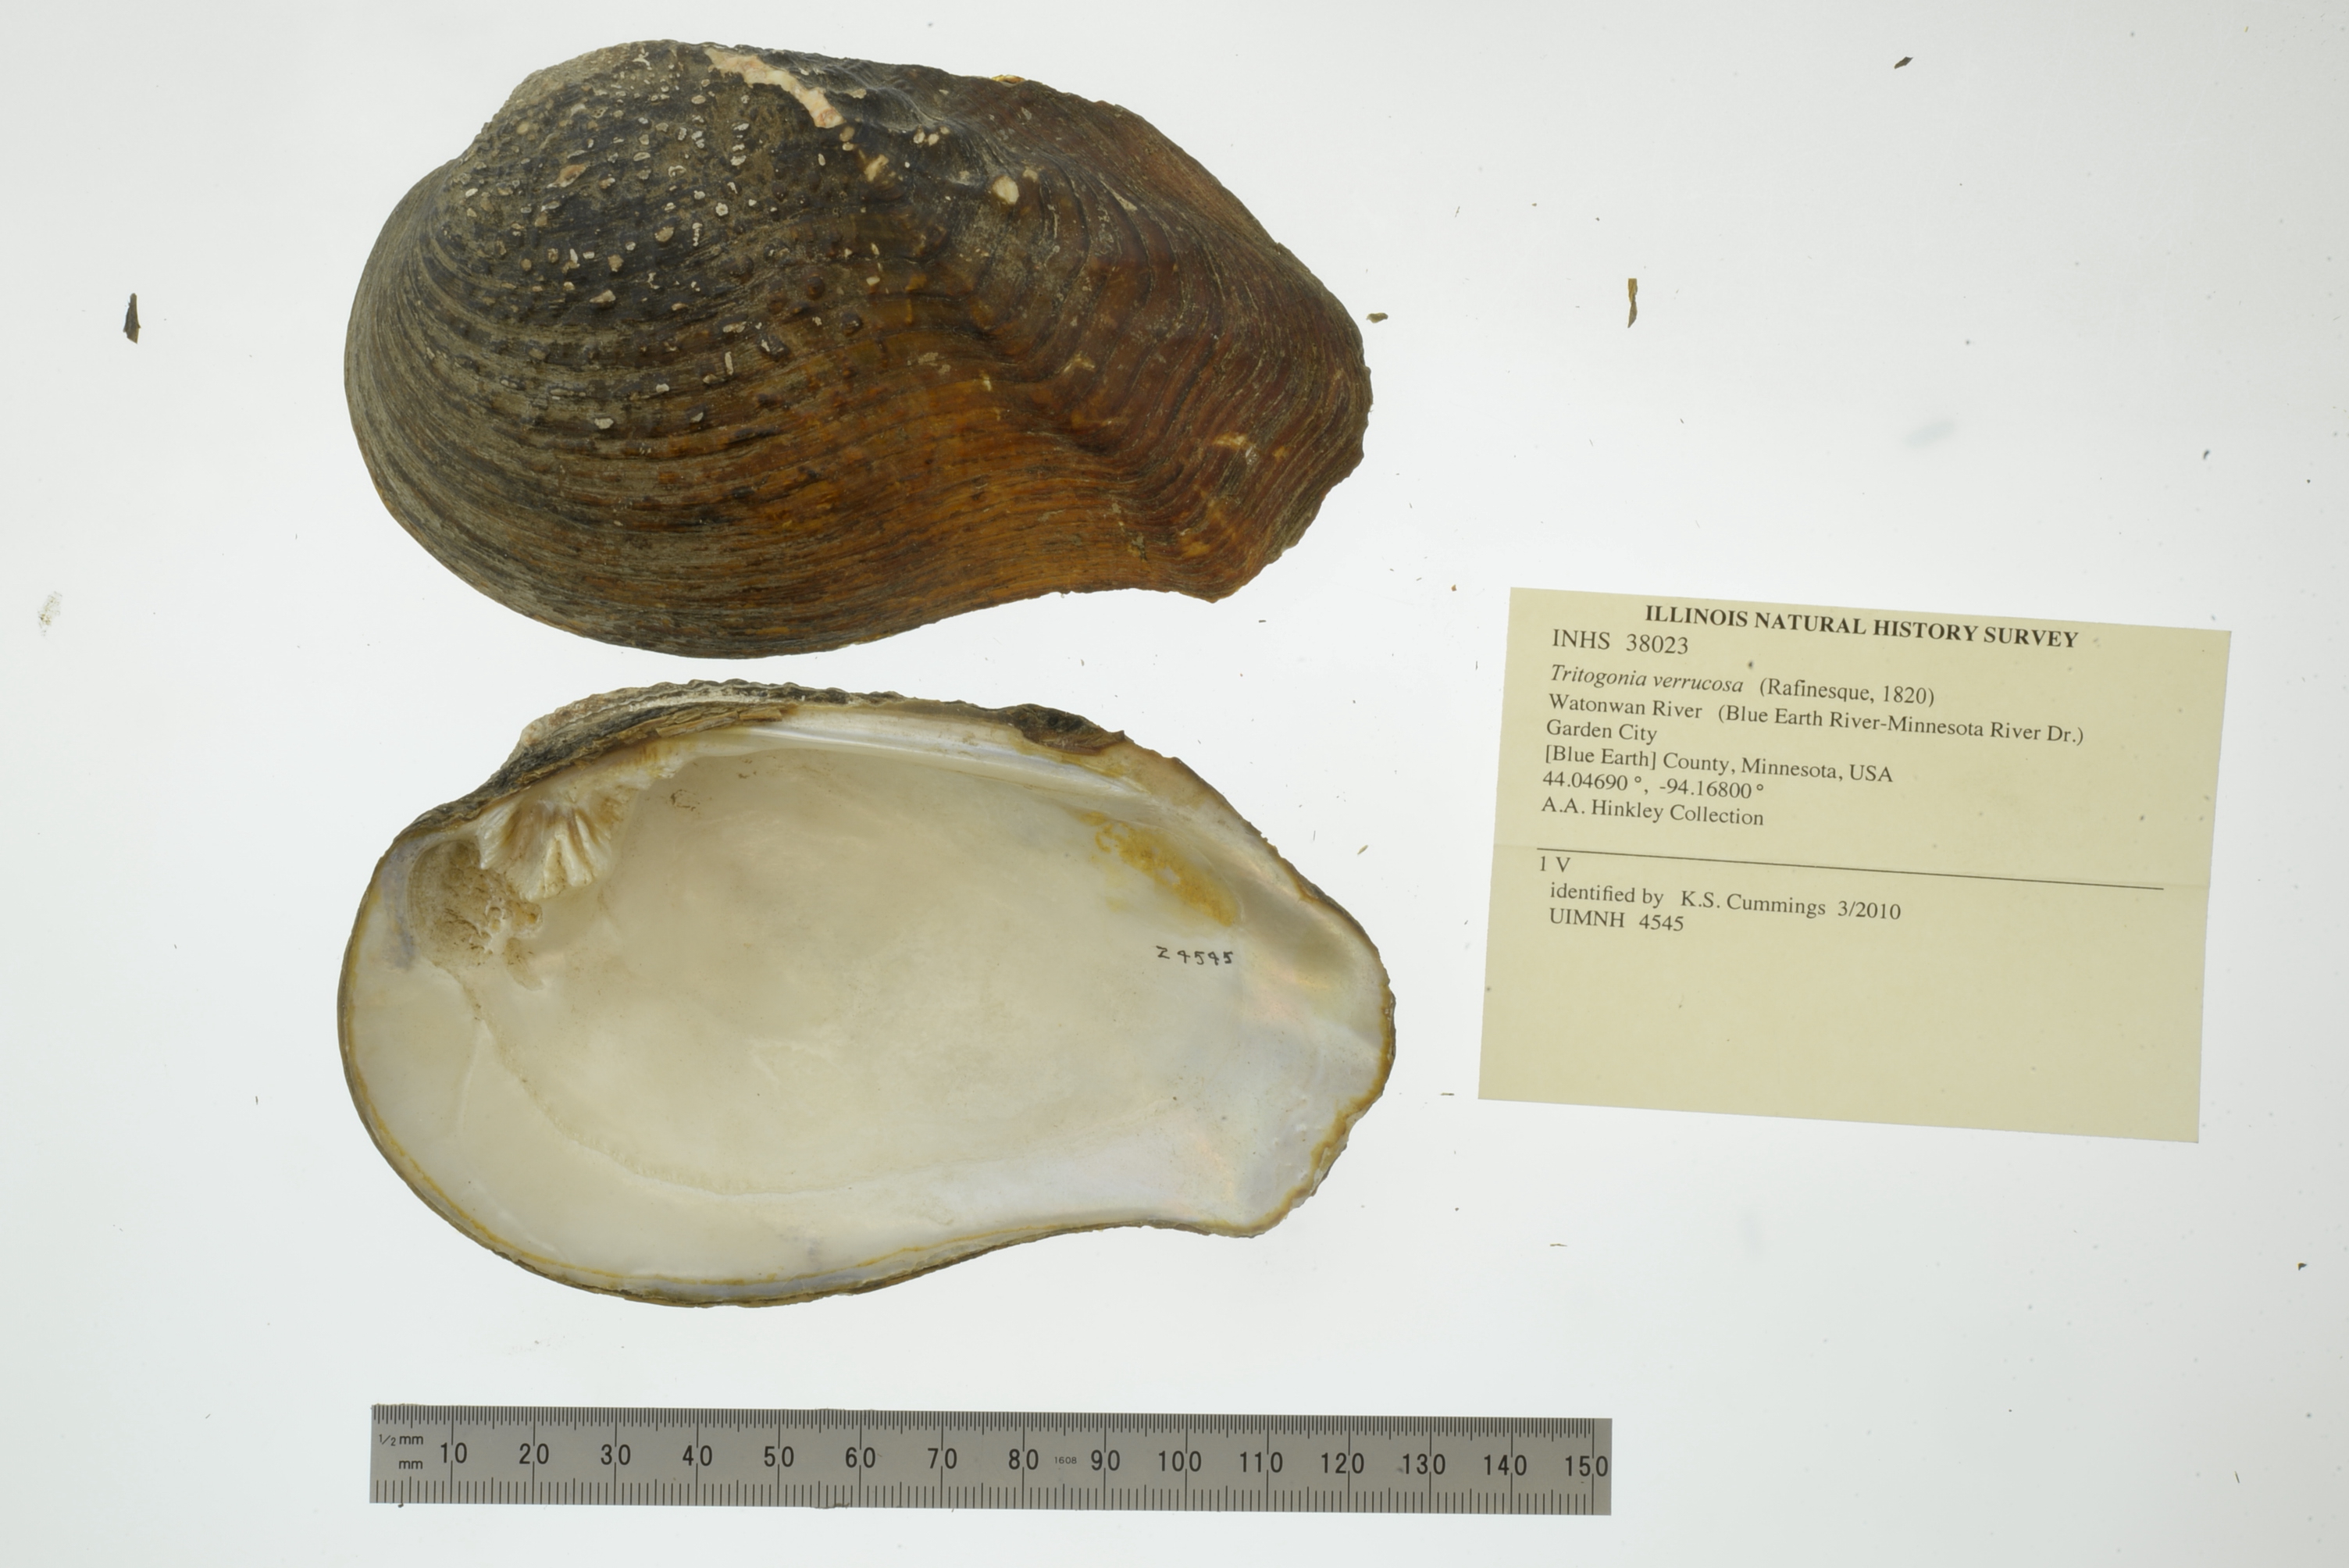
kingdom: Animalia
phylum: Mollusca
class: Bivalvia
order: Unionida
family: Unionidae
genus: Tritogonia
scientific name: Tritogonia verrucosa
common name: Pistolgrip
